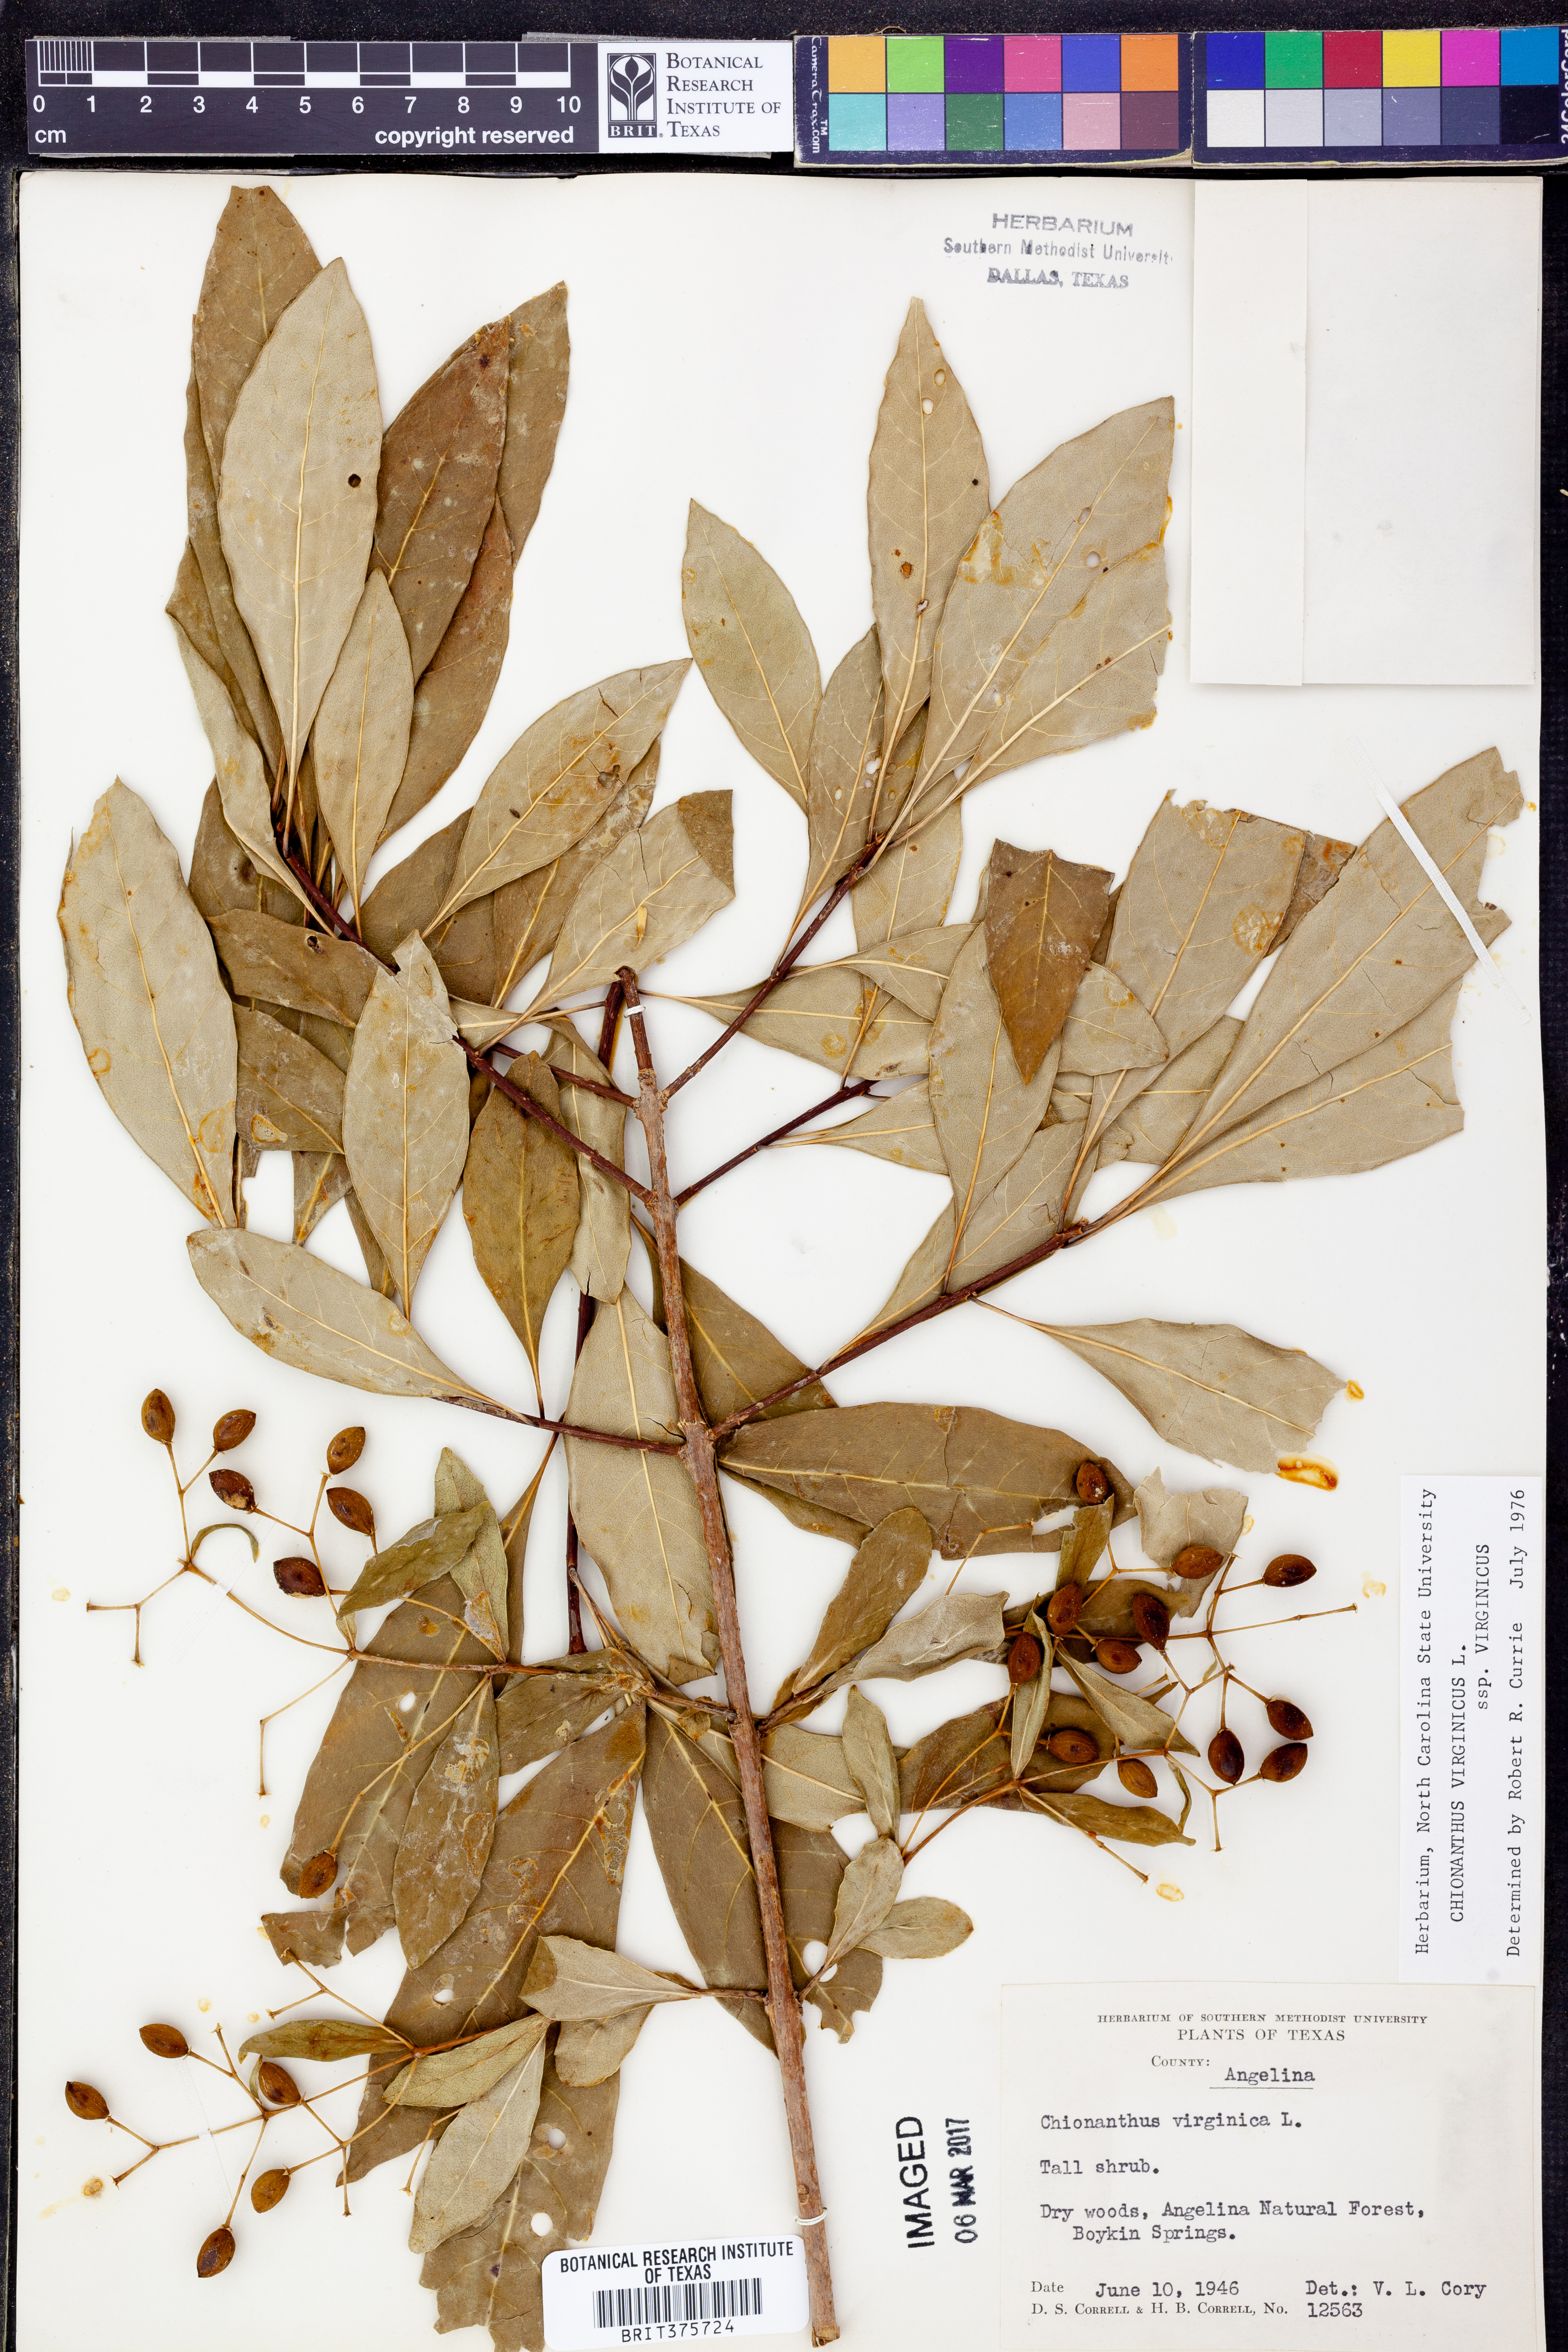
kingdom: Plantae
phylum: Tracheophyta
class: Magnoliopsida
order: Lamiales
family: Oleaceae
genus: Chionanthus
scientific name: Chionanthus virginicus
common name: American fringetree
